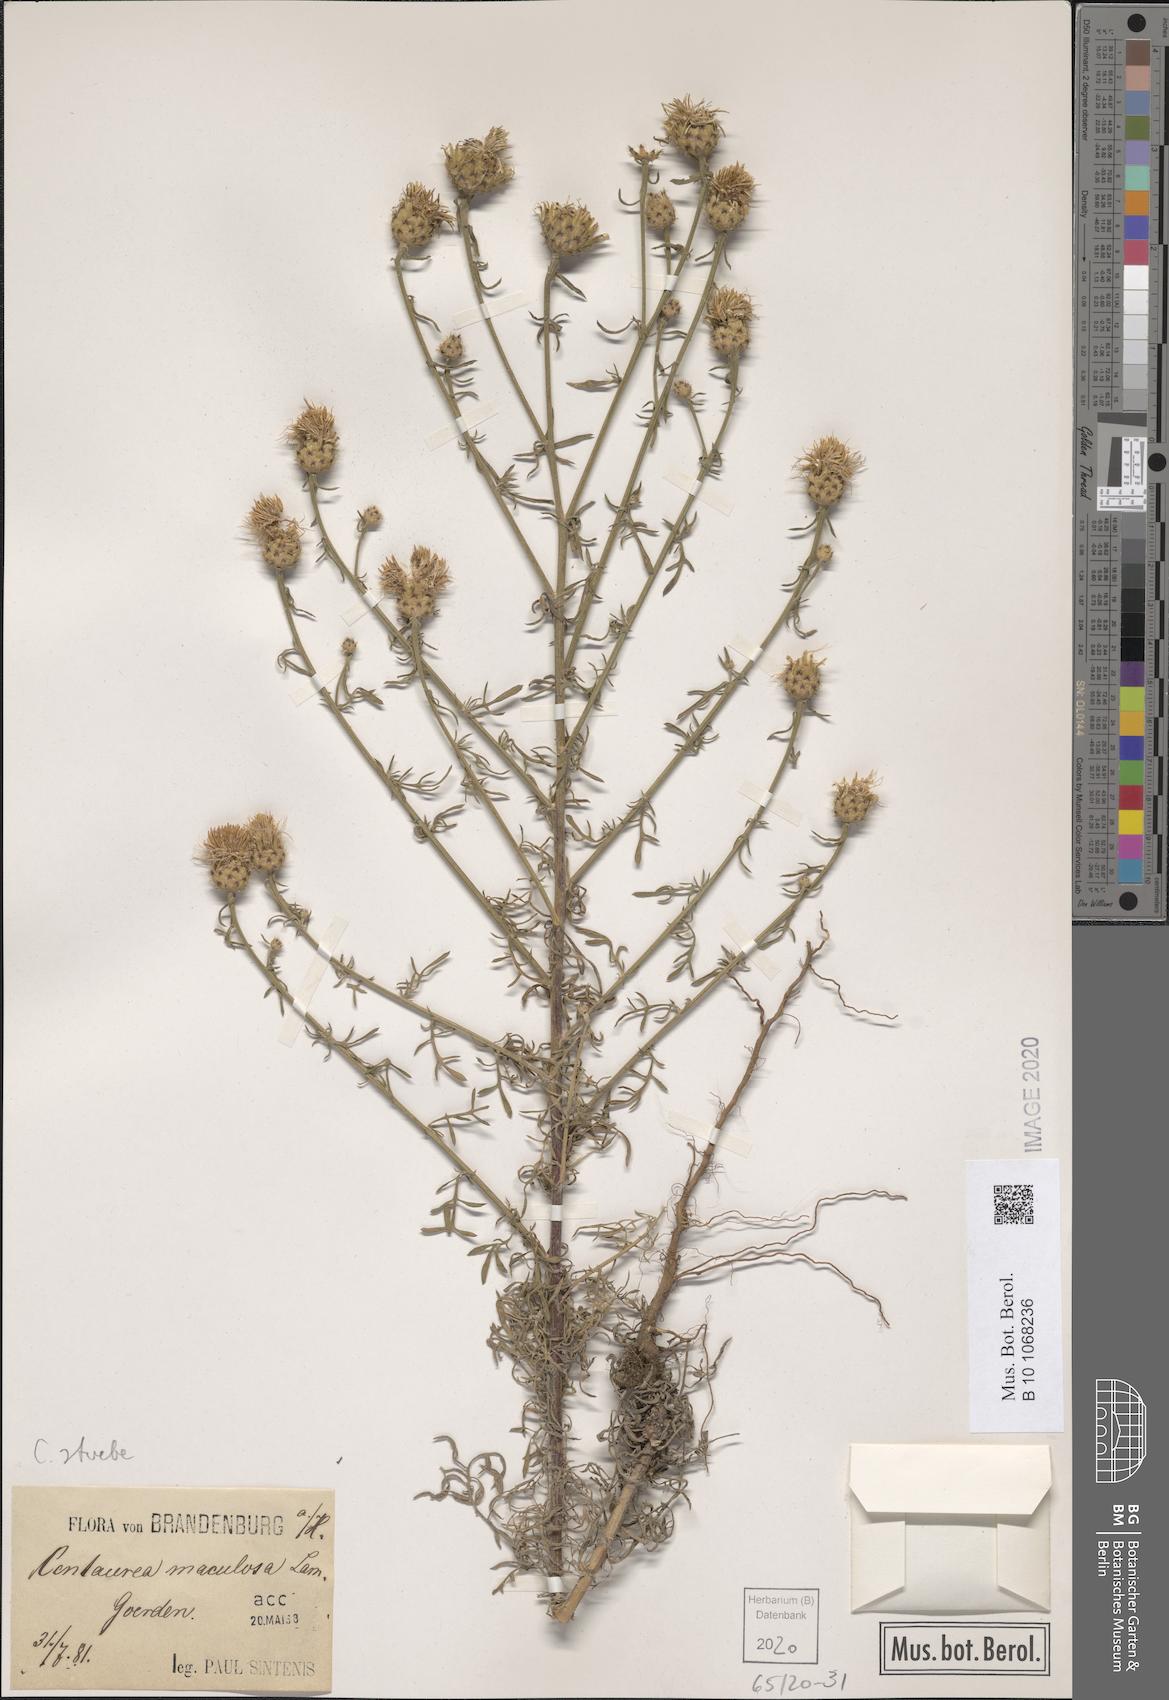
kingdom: Plantae
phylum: Tracheophyta
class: Magnoliopsida
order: Asterales
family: Asteraceae
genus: Centaurea
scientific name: Centaurea stoebe
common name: Spotted knapweed
